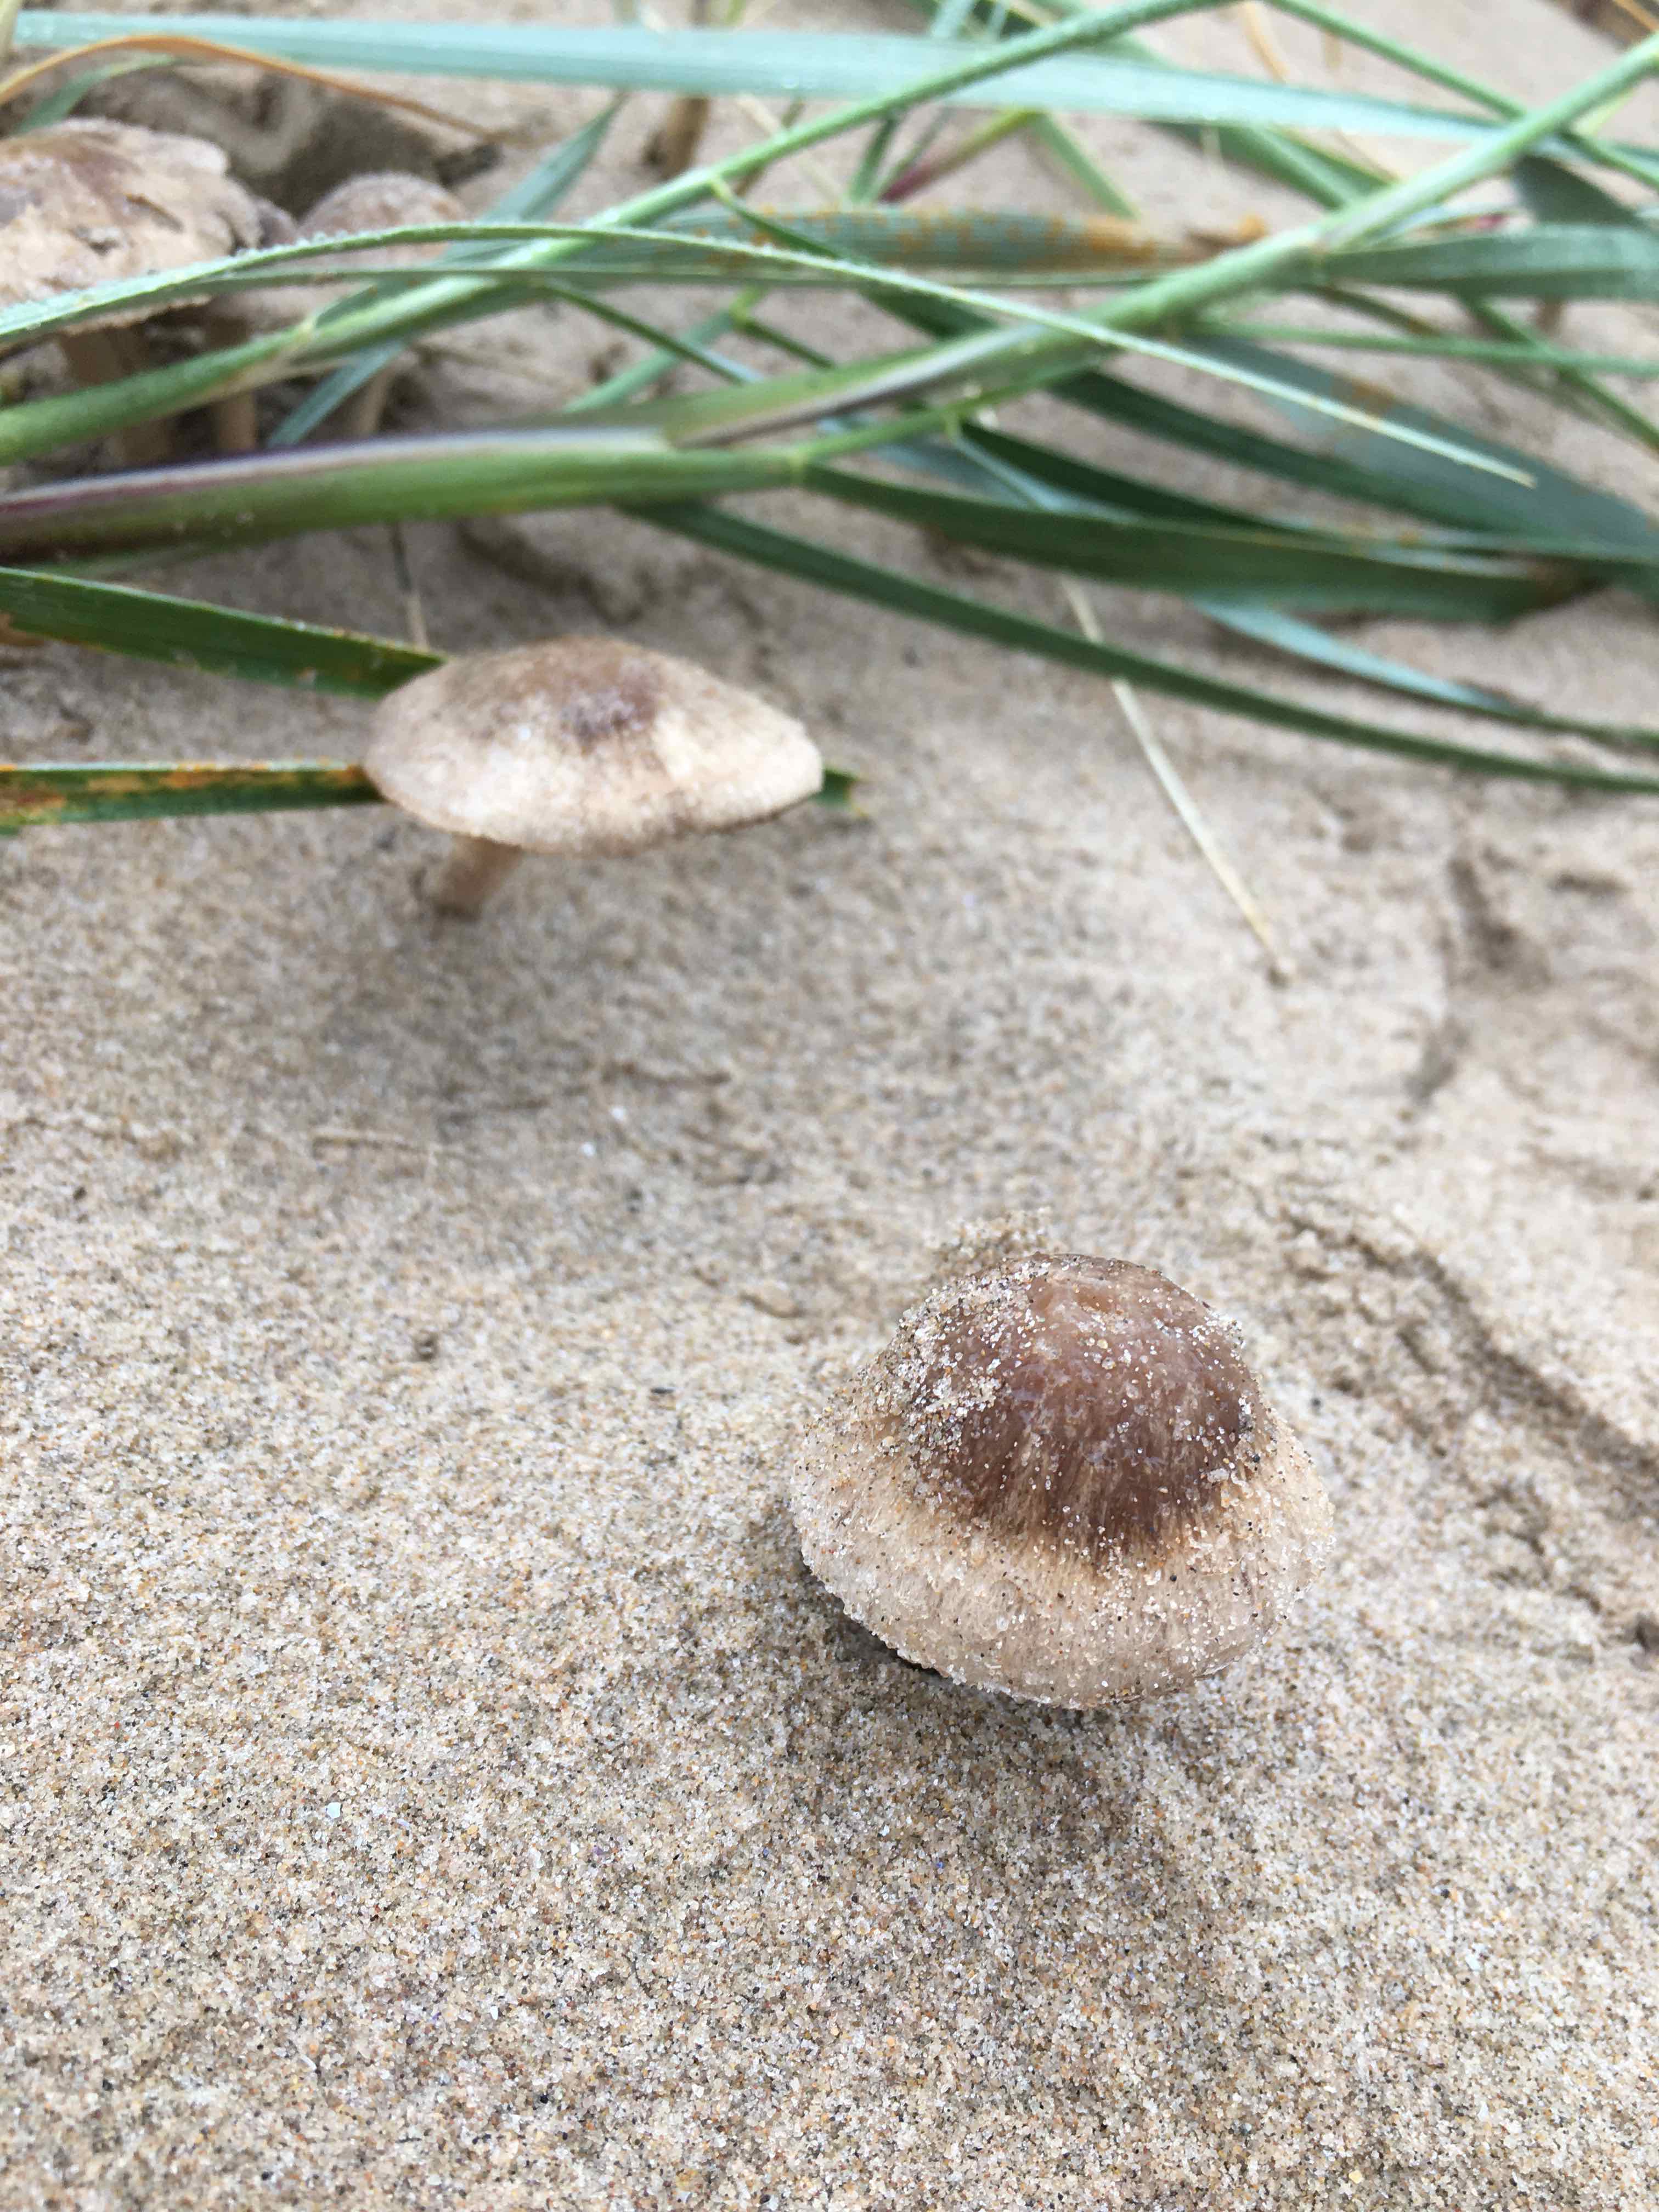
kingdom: Fungi
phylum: Basidiomycota
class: Agaricomycetes
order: Agaricales
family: Psathyrellaceae
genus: Psathyrella
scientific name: Psathyrella ammophila
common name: klit-mørkhat
